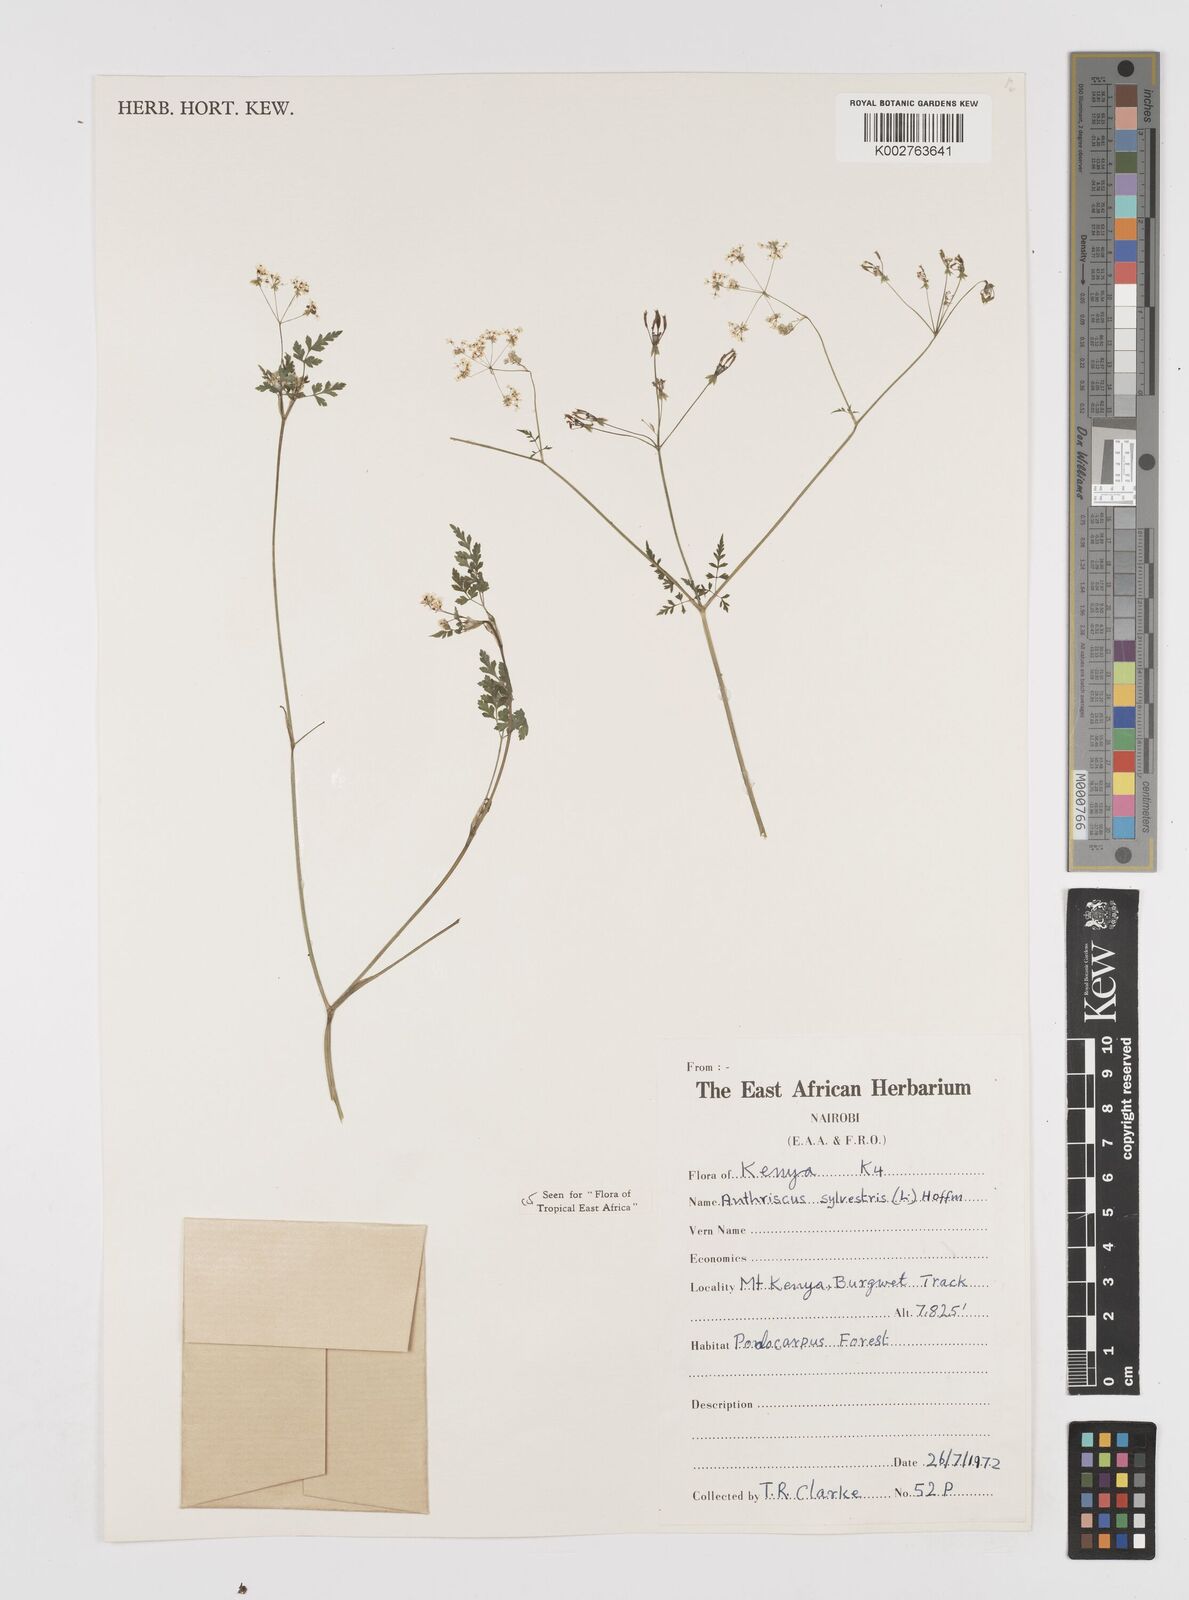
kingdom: Plantae
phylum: Tracheophyta
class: Magnoliopsida
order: Apiales
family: Apiaceae
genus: Anthriscus
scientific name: Anthriscus sylvestris
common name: Cow parsley
